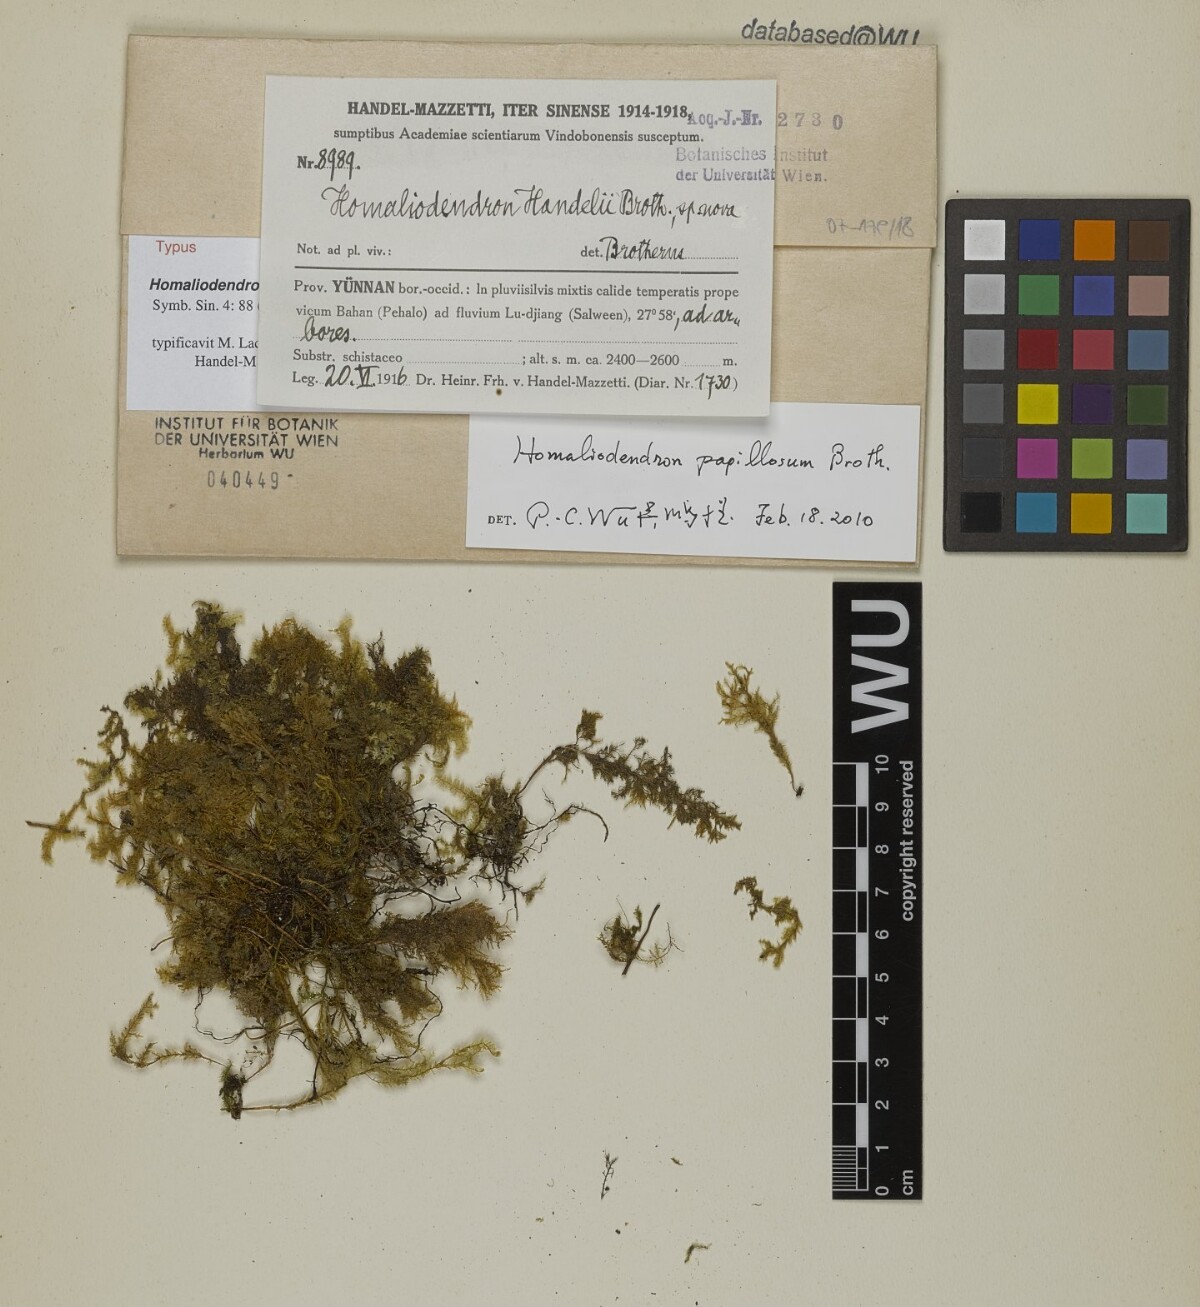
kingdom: Plantae
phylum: Bryophyta
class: Bryopsida
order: Hypnales
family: Neckeraceae
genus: Homaliodendron
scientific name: Homaliodendron papillosum
